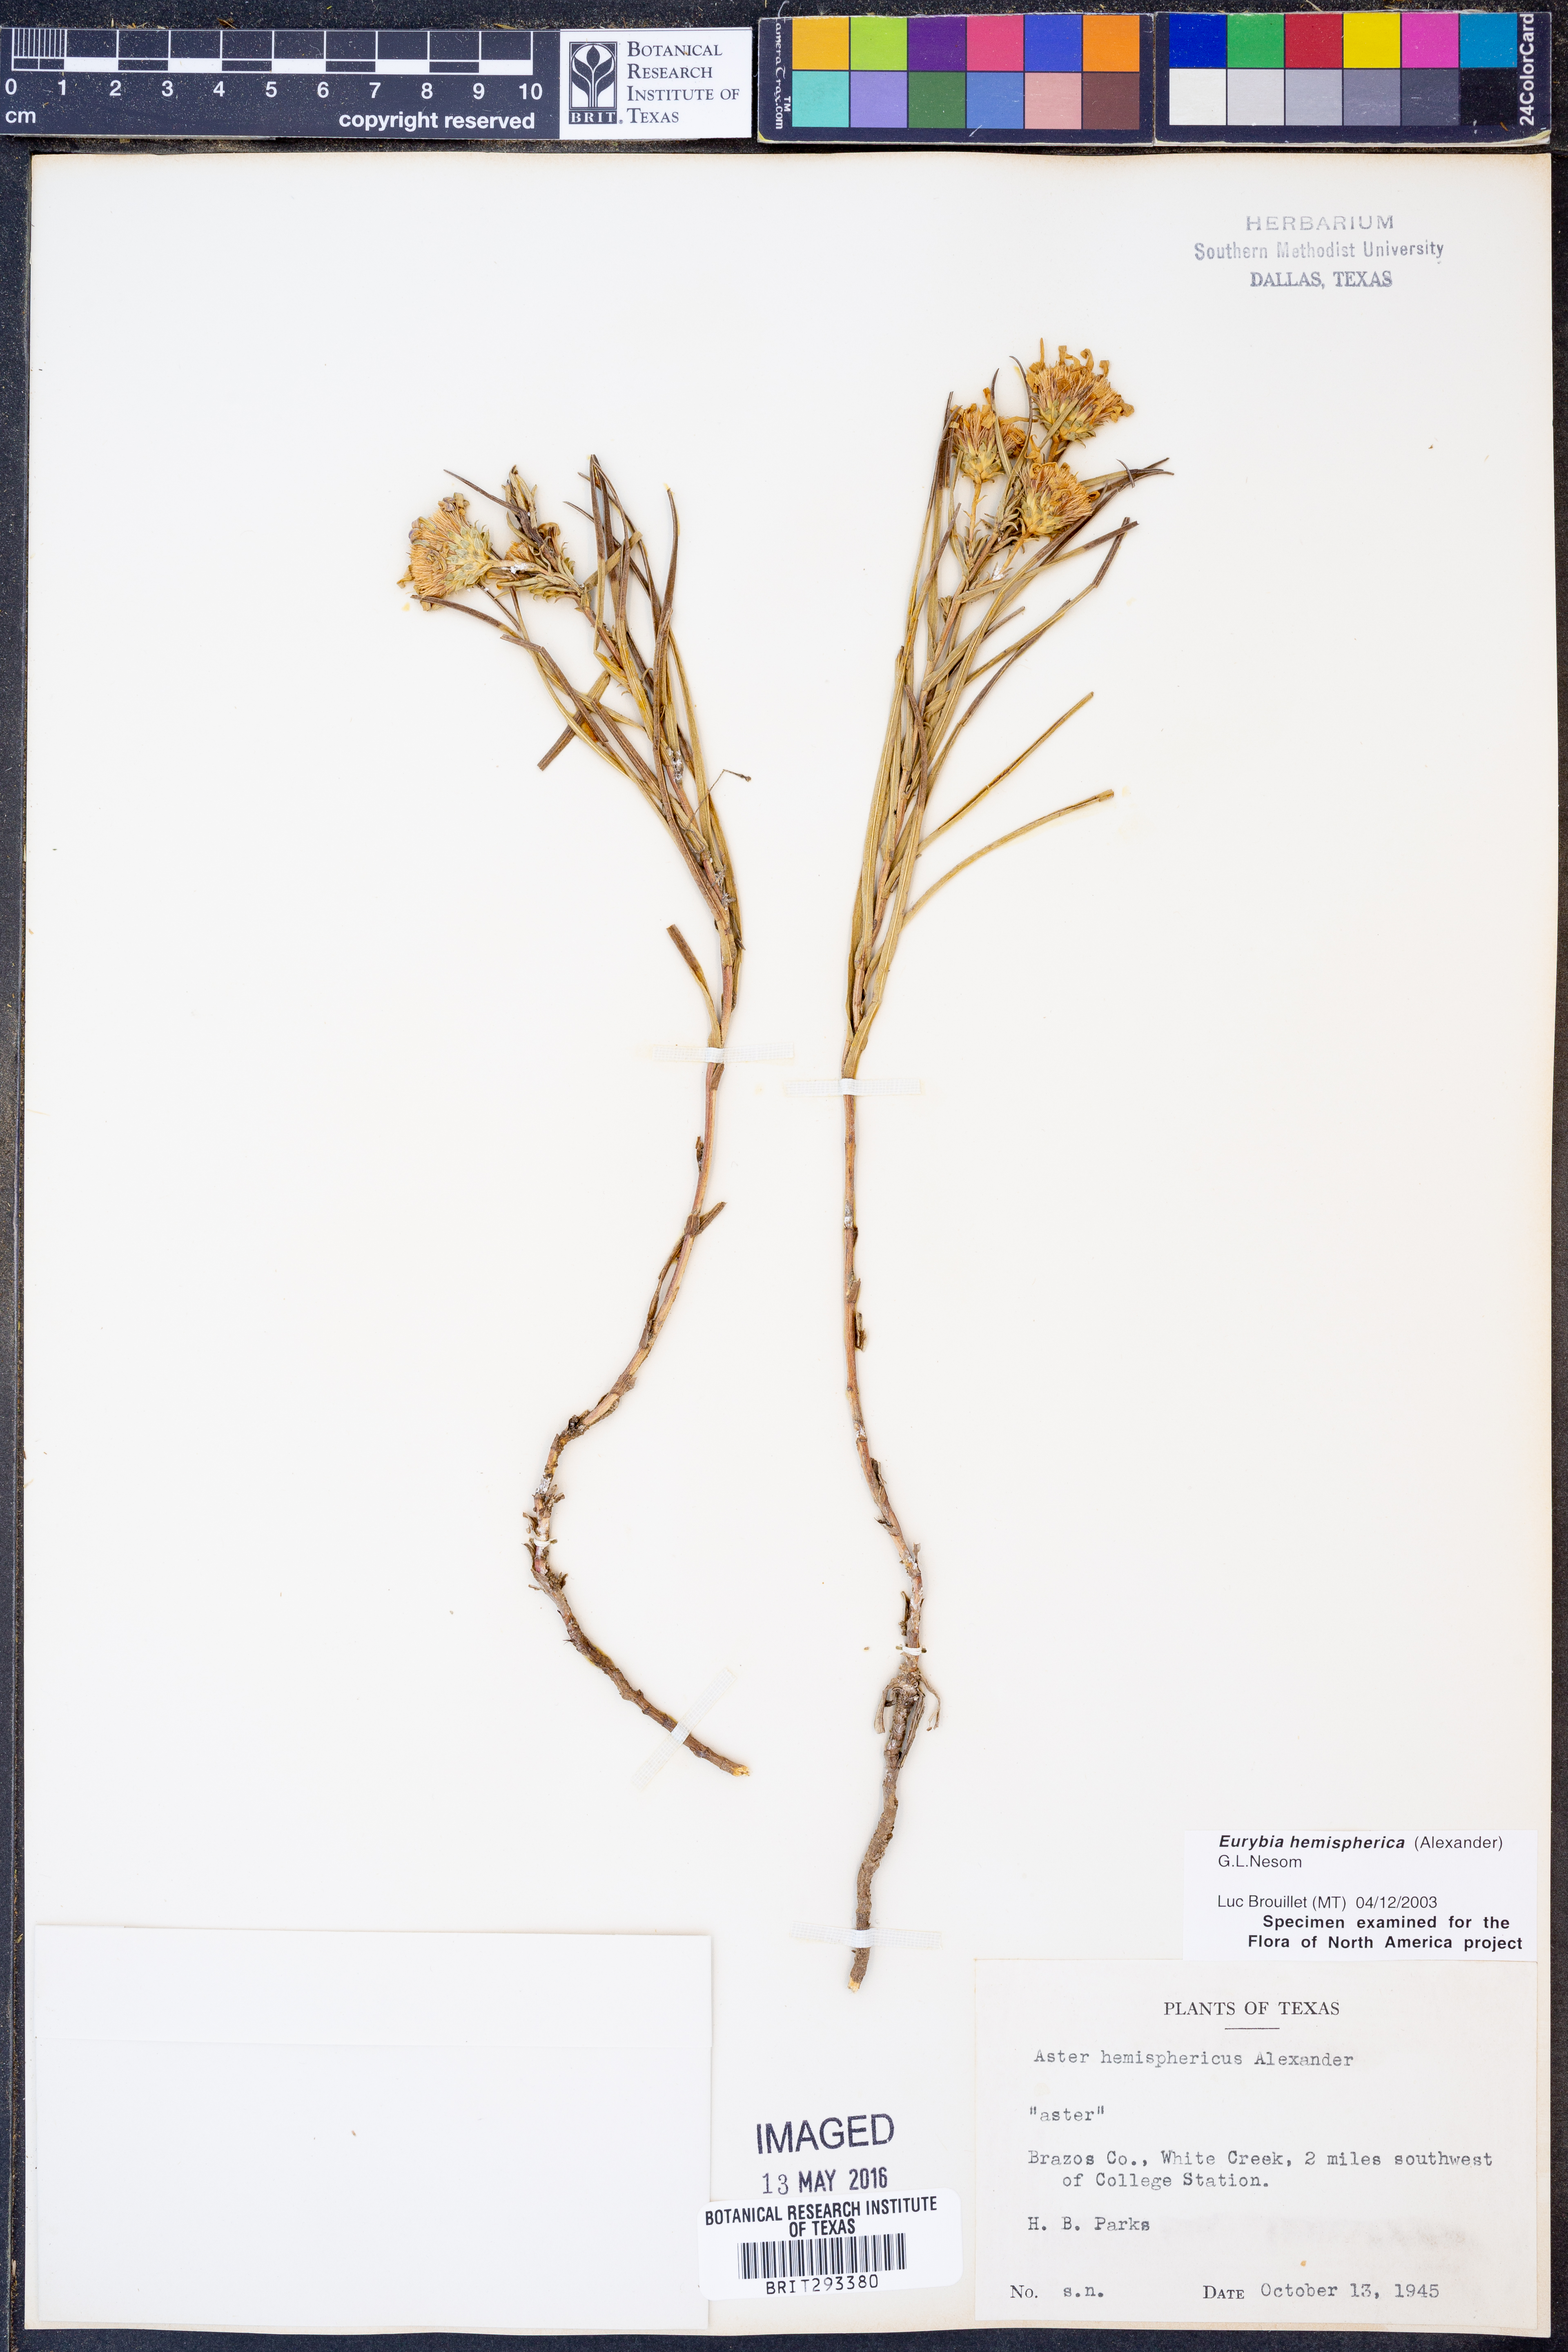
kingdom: Plantae
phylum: Tracheophyta
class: Magnoliopsida
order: Asterales
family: Asteraceae
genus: Eurybia
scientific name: Eurybia hemispherica
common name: Showy aster
